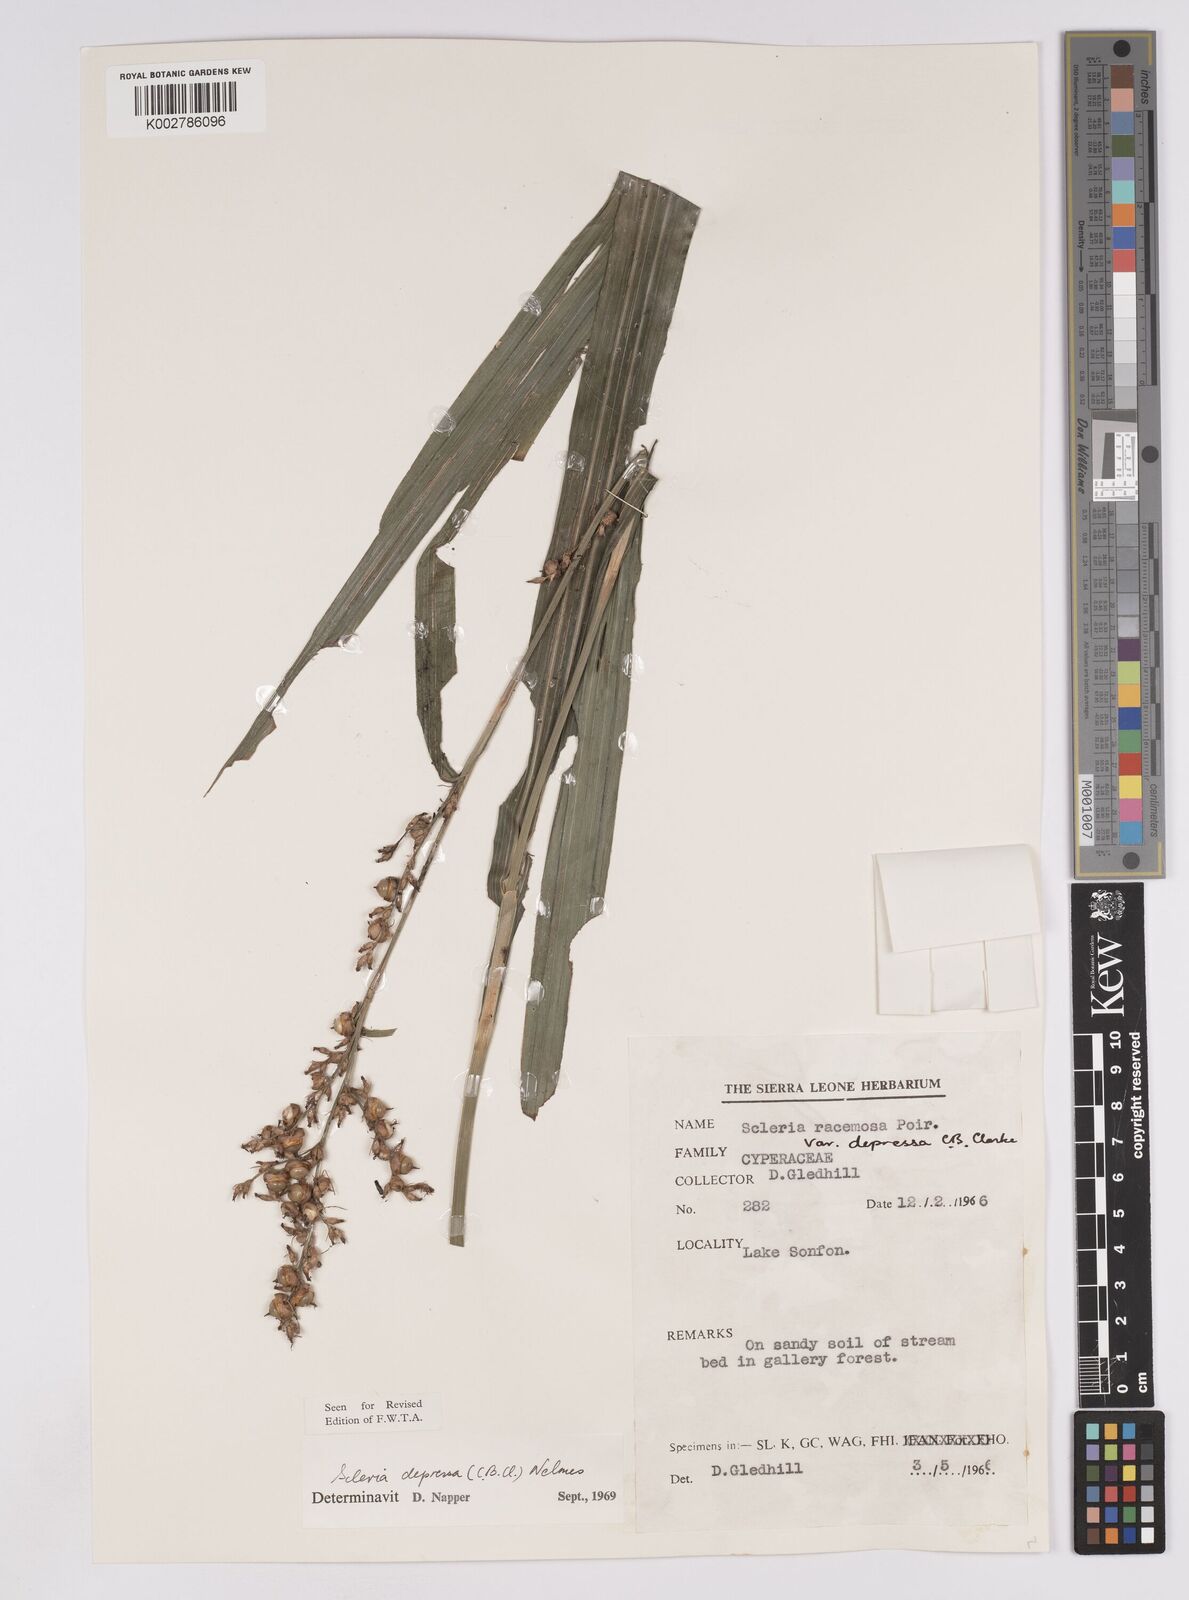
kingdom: Plantae
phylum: Tracheophyta
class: Liliopsida
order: Poales
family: Cyperaceae
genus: Scleria
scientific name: Scleria depressa
